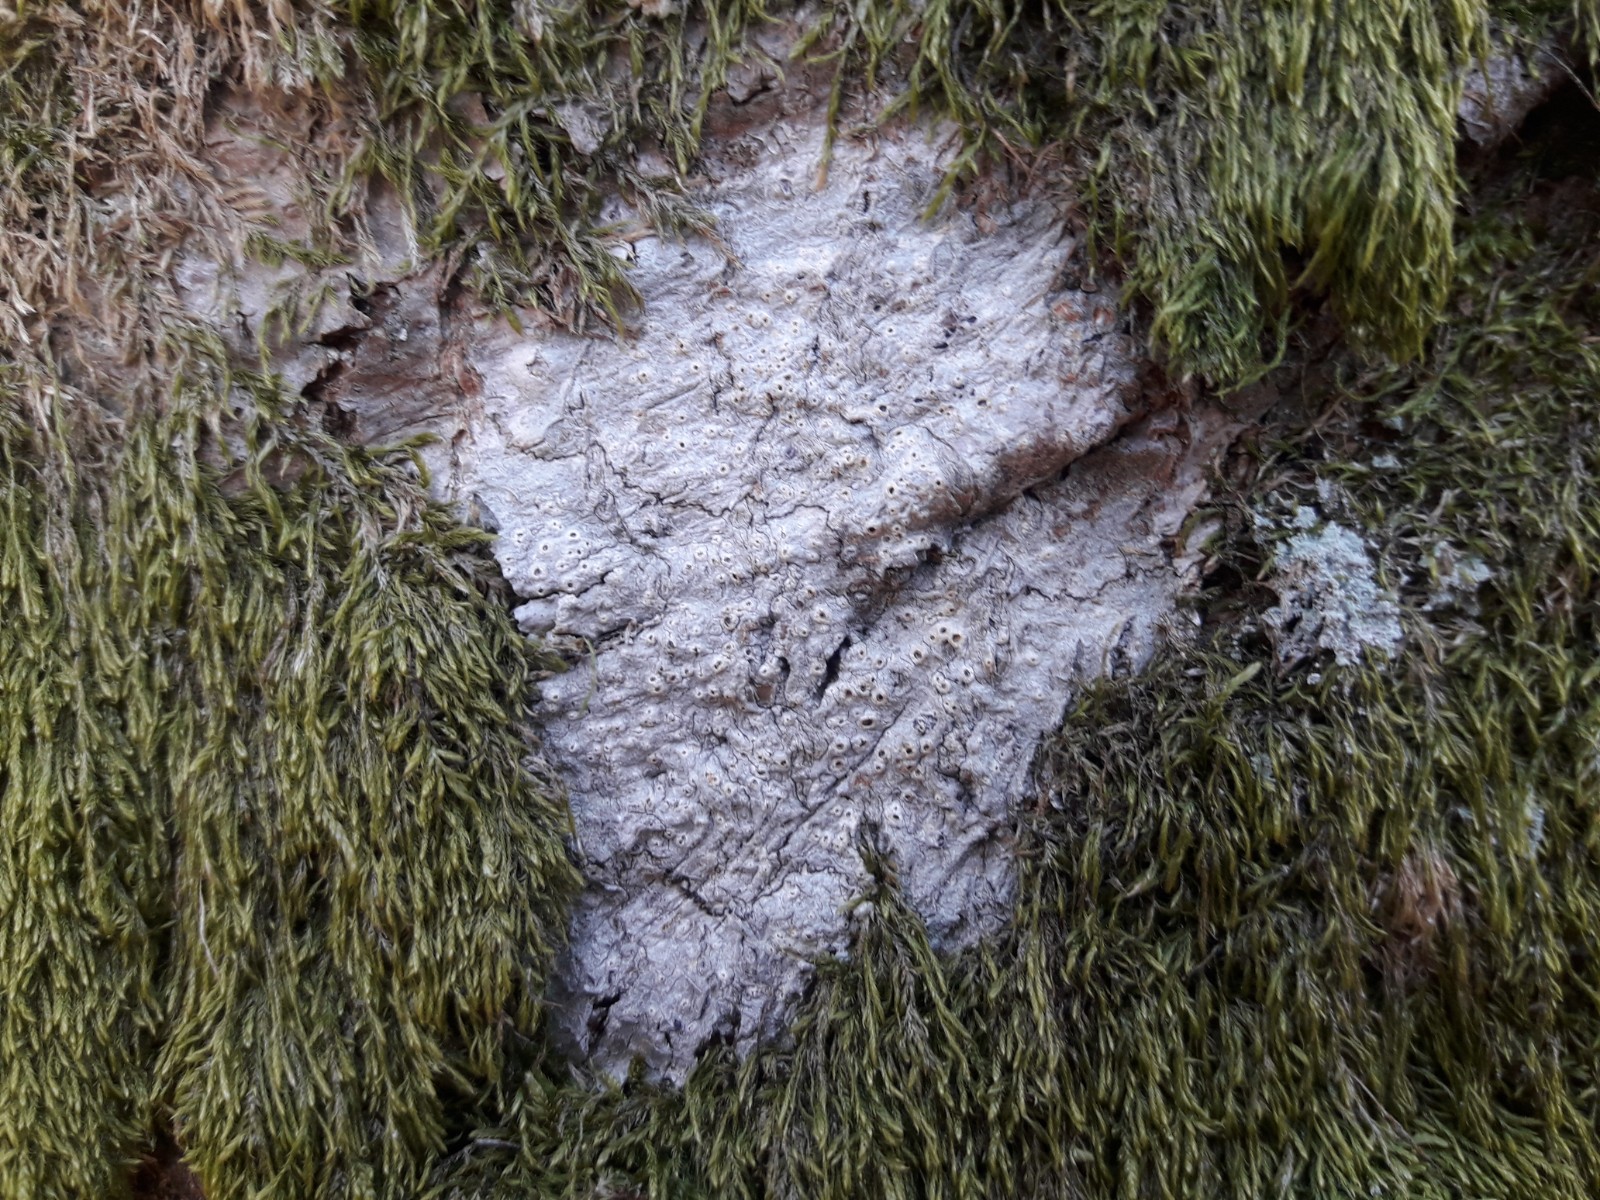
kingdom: Fungi
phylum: Ascomycota
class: Lecanoromycetes
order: Ostropales
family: Graphidaceae
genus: Thelotrema
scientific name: Thelotrema lepadinum
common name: almindelig slørkantlav
